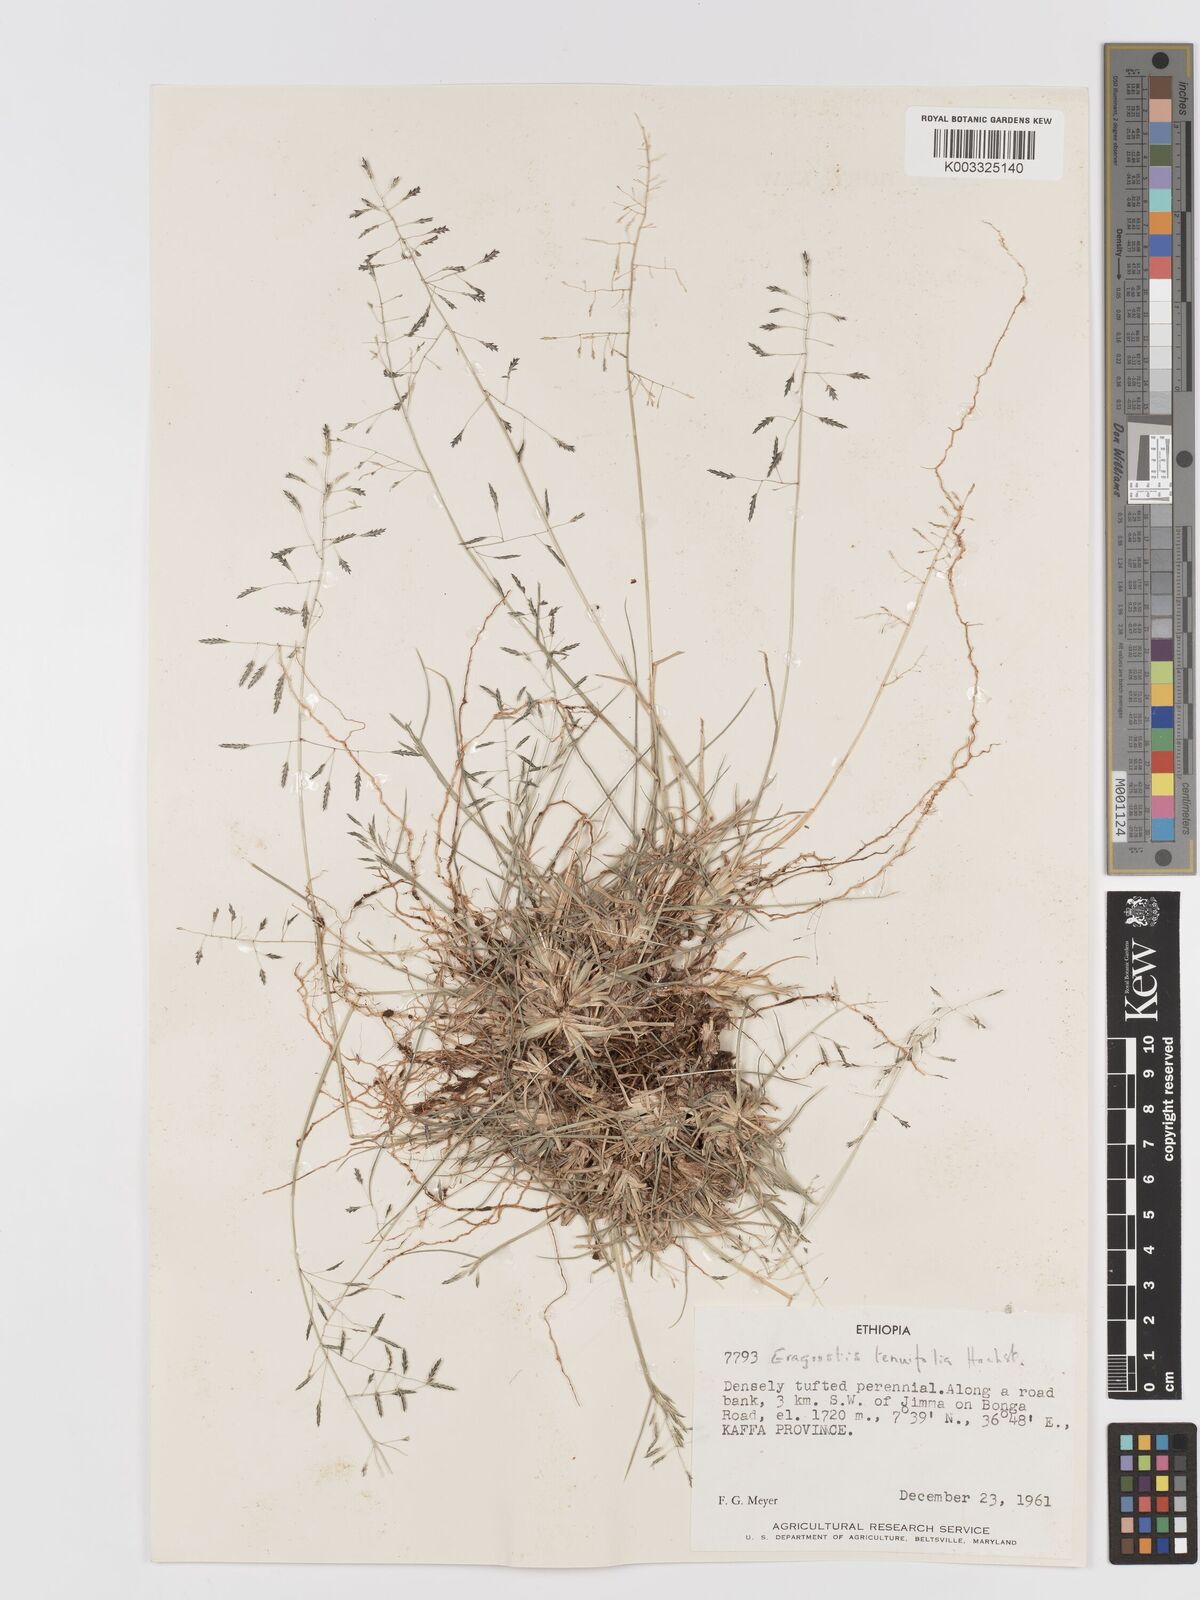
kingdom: Plantae
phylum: Tracheophyta
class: Liliopsida
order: Poales
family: Poaceae
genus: Eragrostis
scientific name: Eragrostis tenuifolia
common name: Elastic grass
